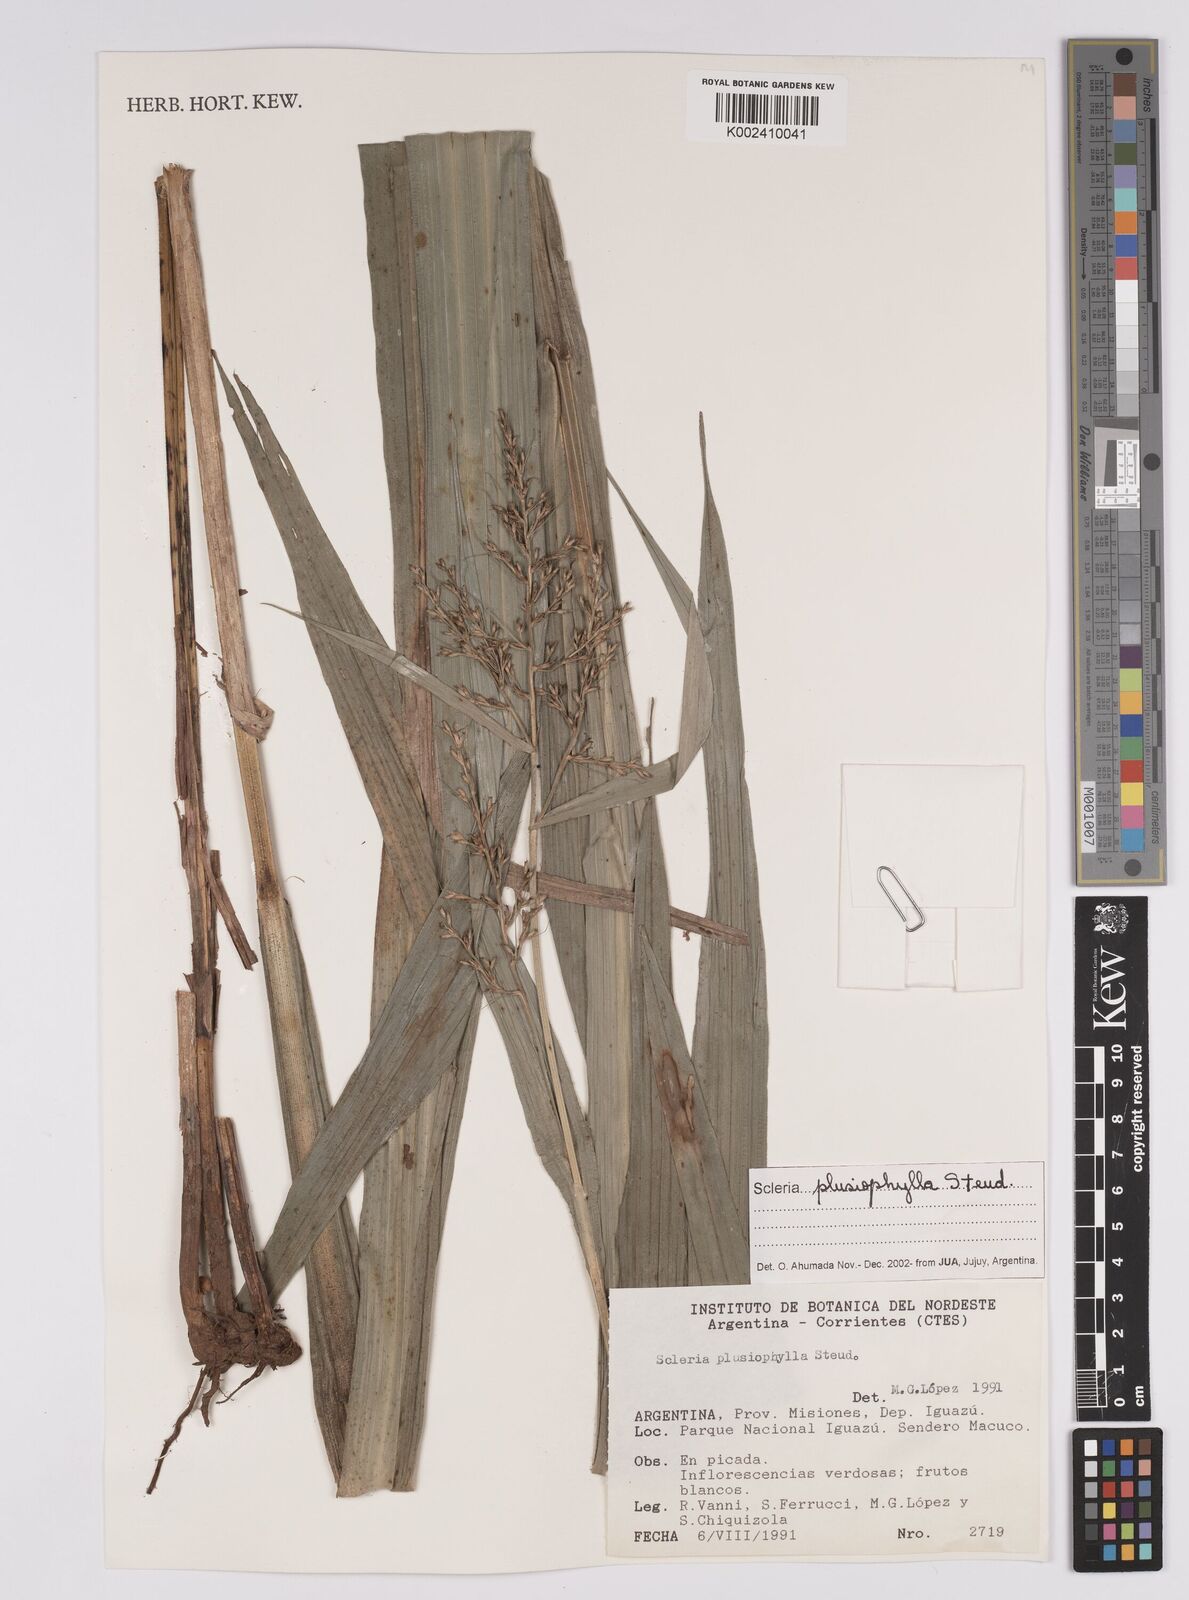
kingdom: Plantae
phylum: Tracheophyta
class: Liliopsida
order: Poales
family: Cyperaceae
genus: Scleria
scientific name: Scleria plusiophylla
